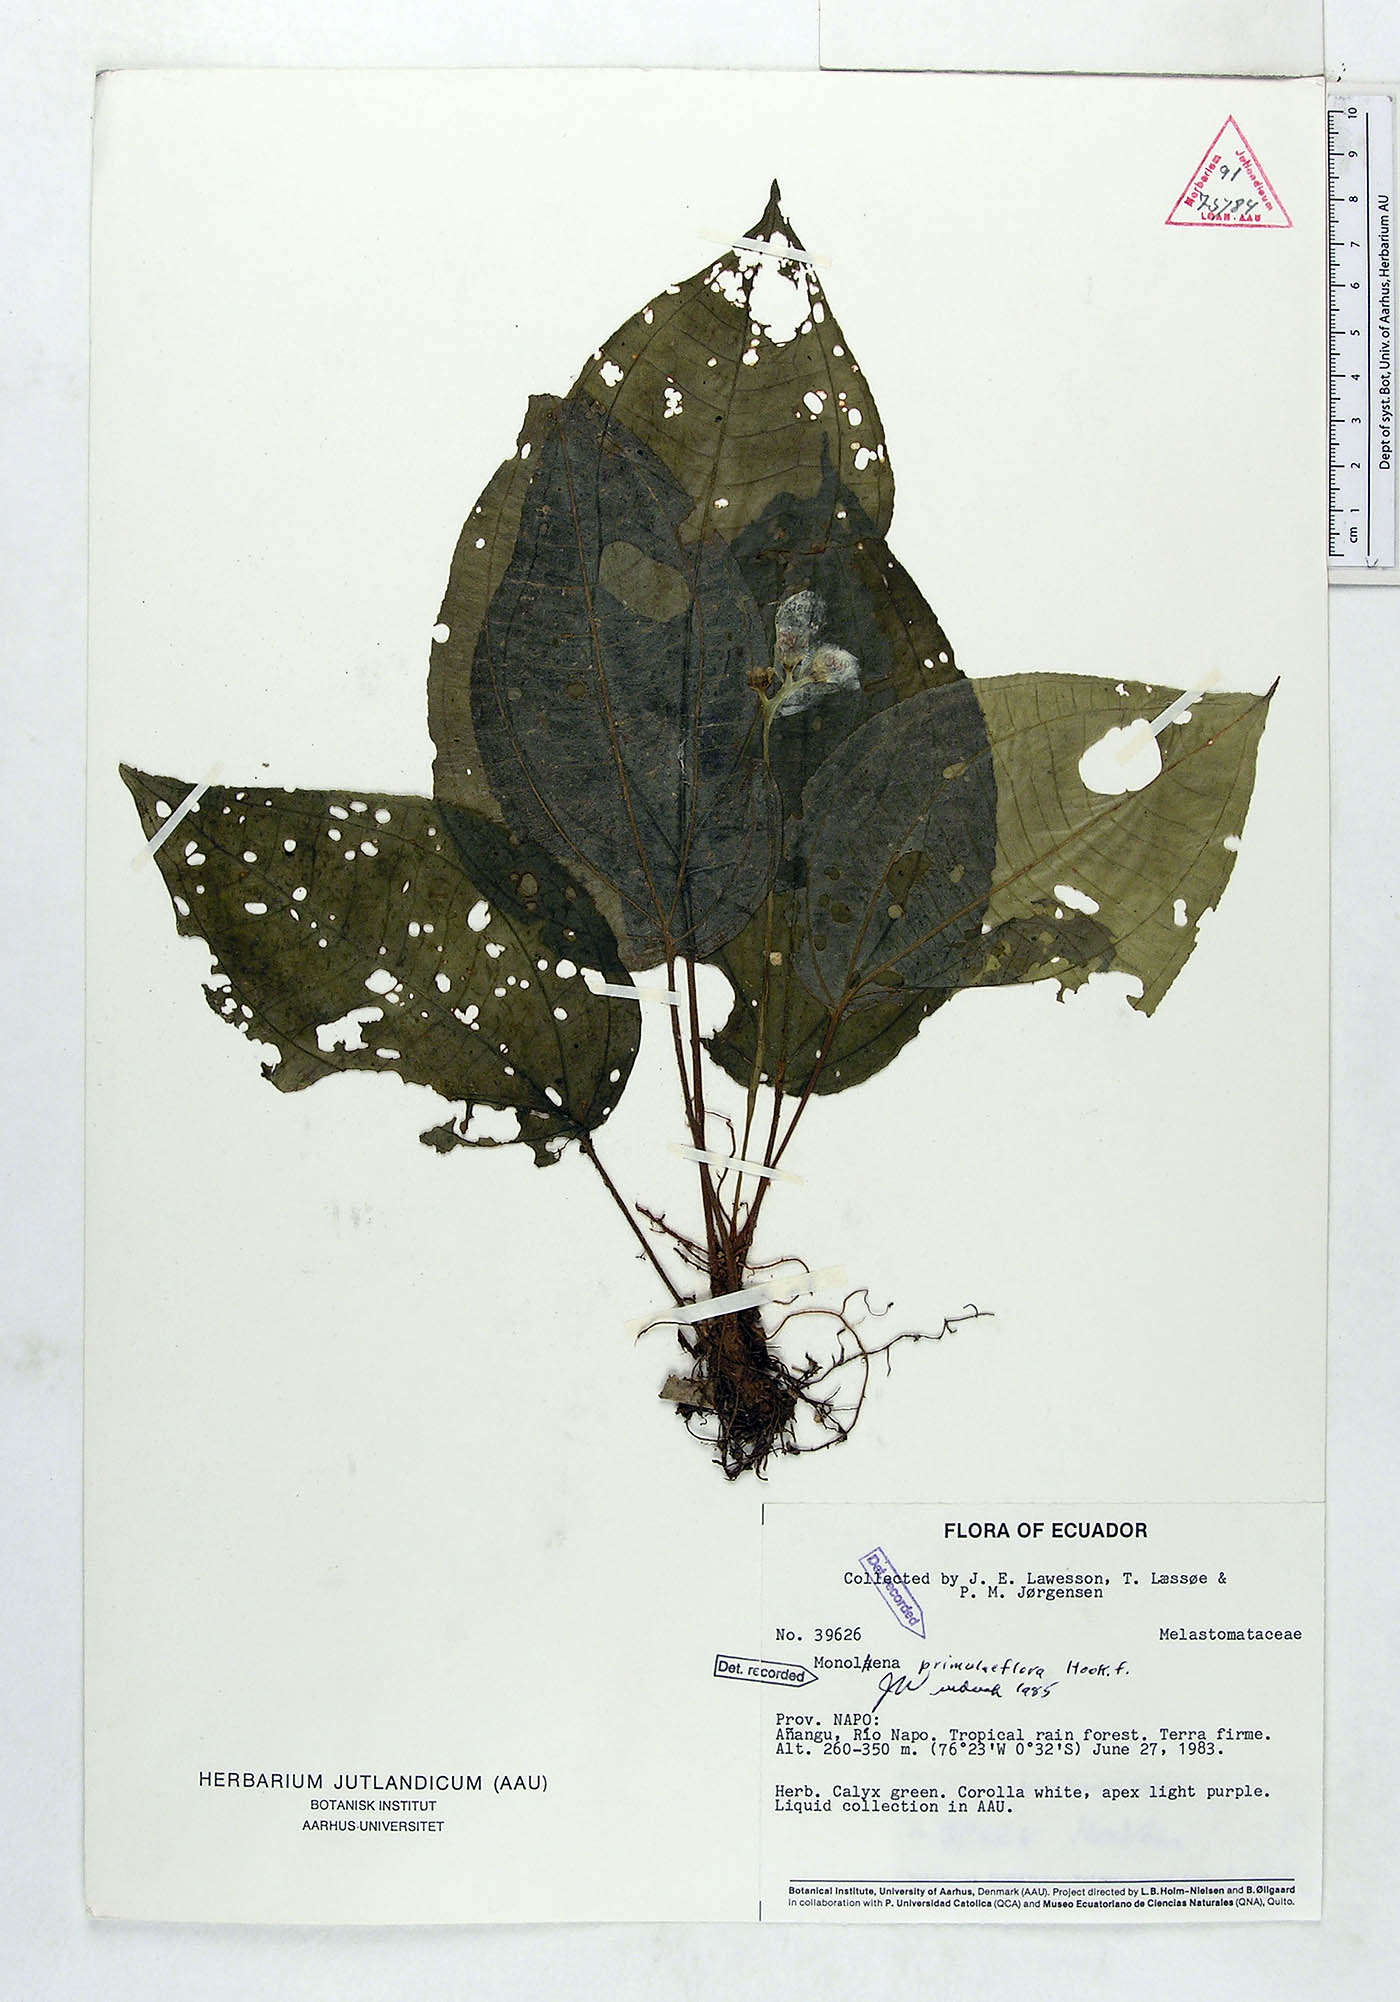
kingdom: Plantae
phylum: Tracheophyta
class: Magnoliopsida
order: Myrtales
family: Melastomataceae
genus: Monolena
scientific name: Monolena primuliflora
